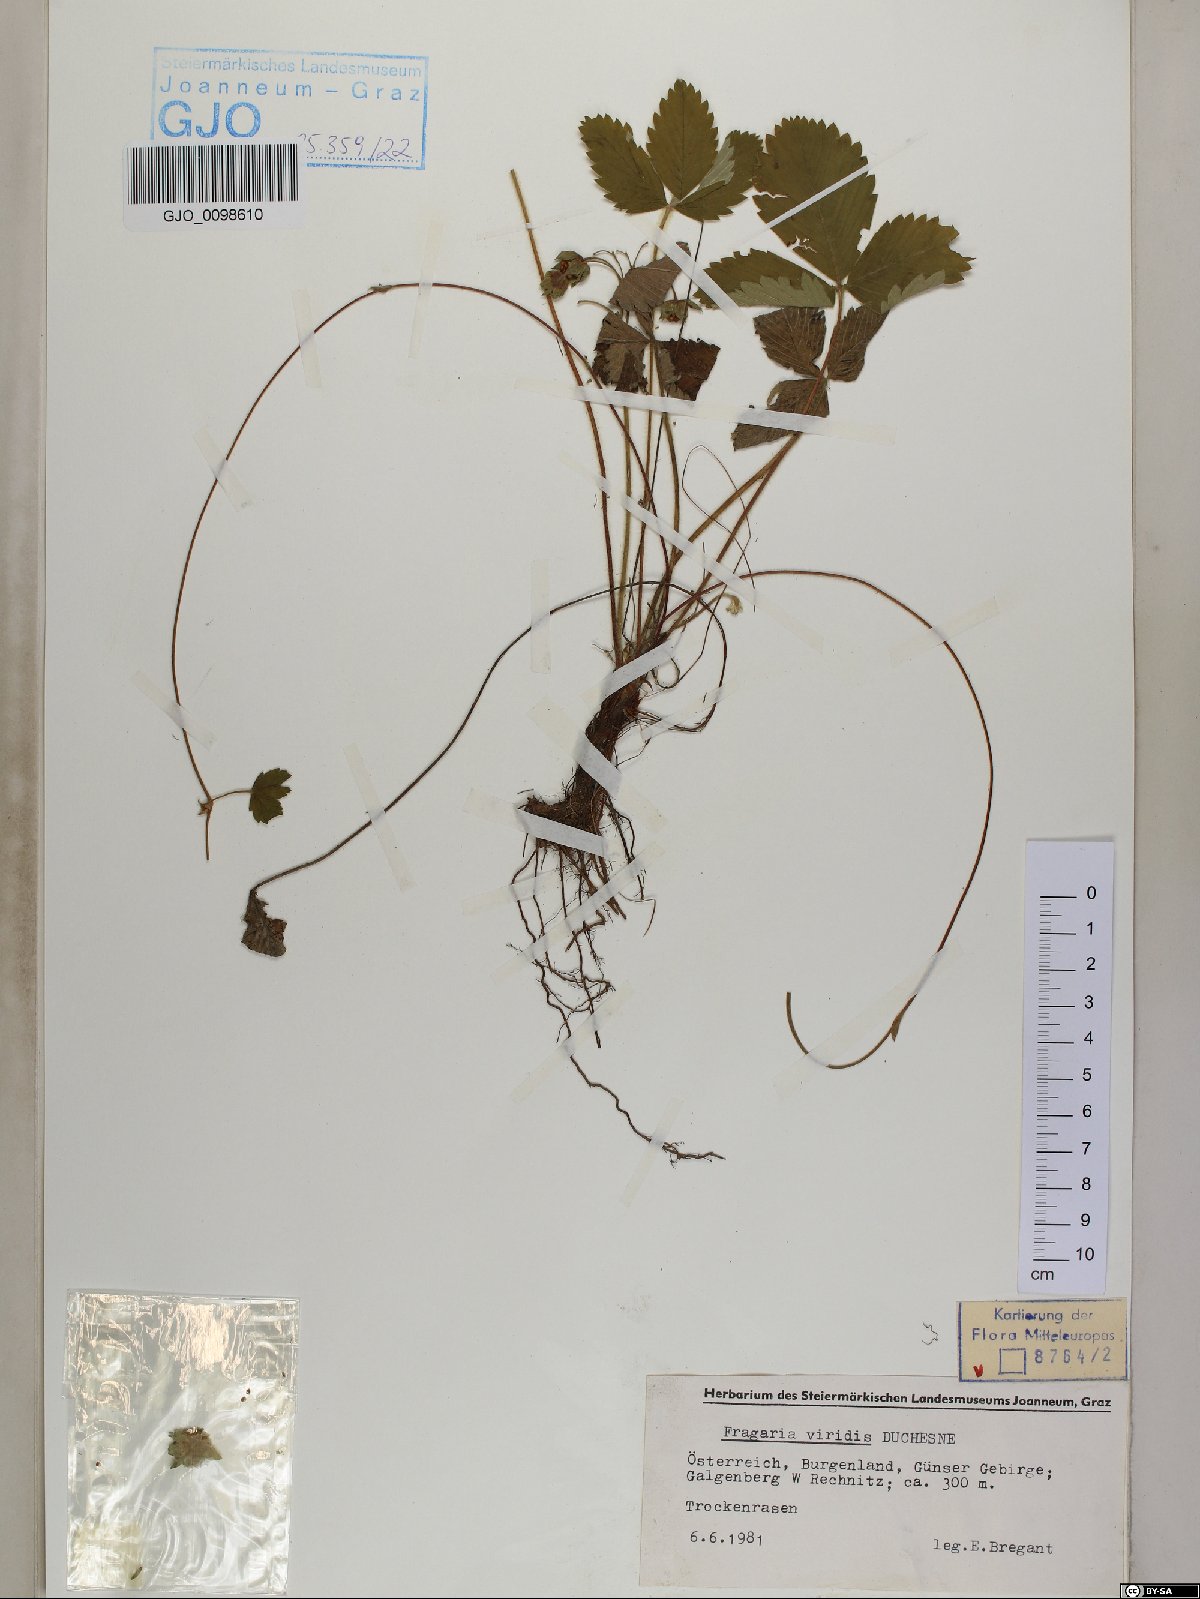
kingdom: Plantae
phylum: Tracheophyta
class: Magnoliopsida
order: Rosales
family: Rosaceae
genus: Fragaria
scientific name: Fragaria viridis
